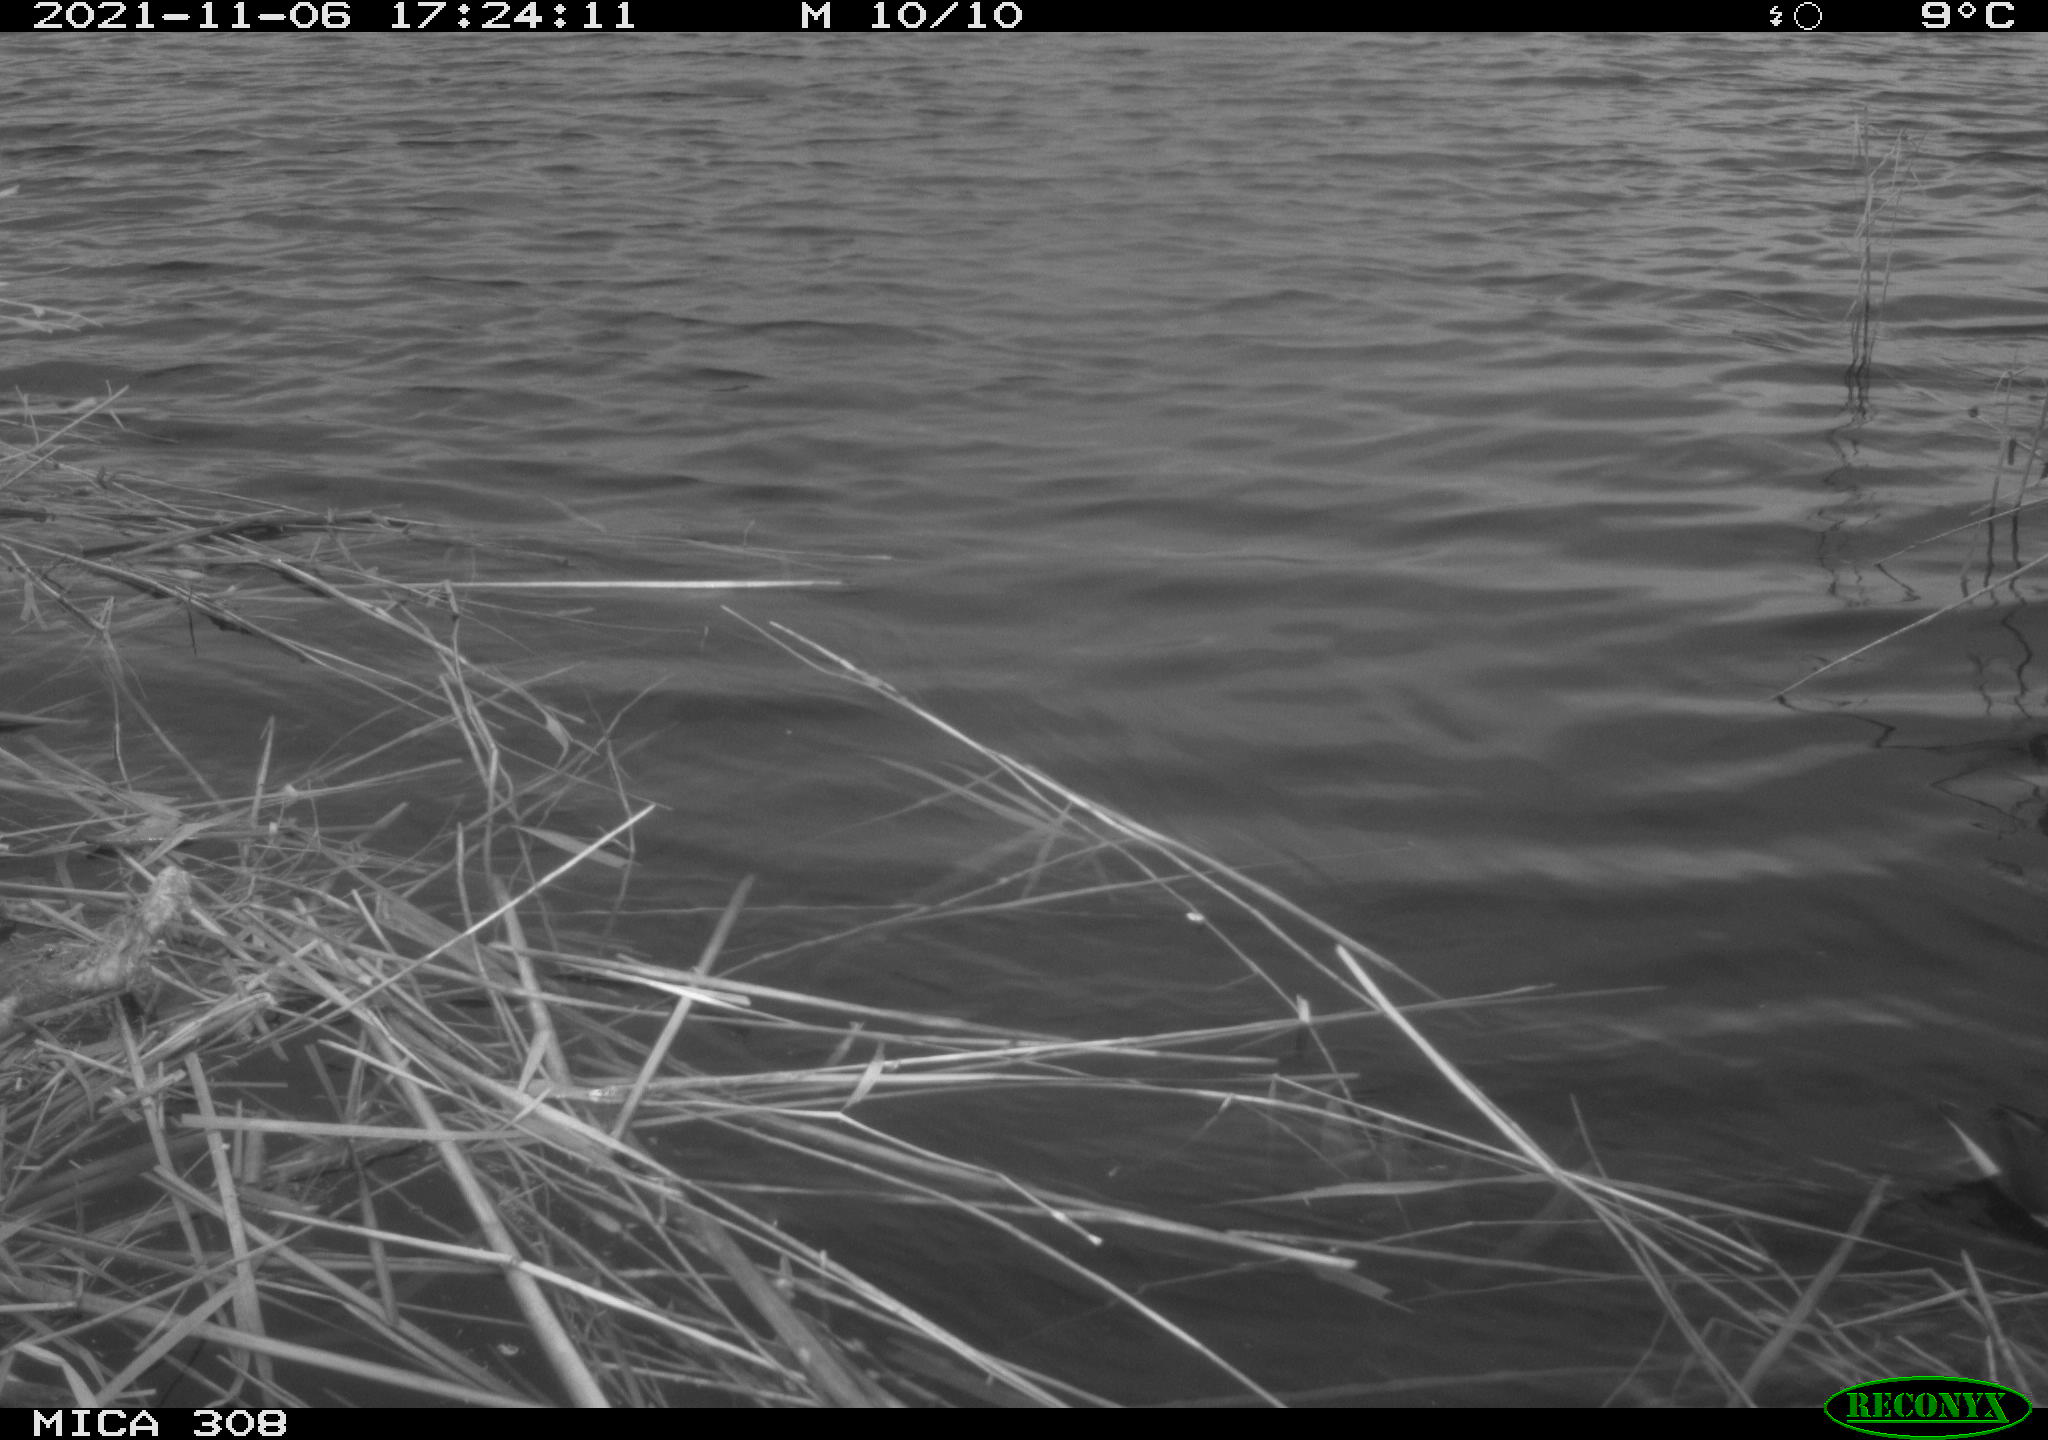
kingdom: Animalia
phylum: Chordata
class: Aves
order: Gruiformes
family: Rallidae
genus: Gallinula
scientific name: Gallinula chloropus
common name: Common moorhen
